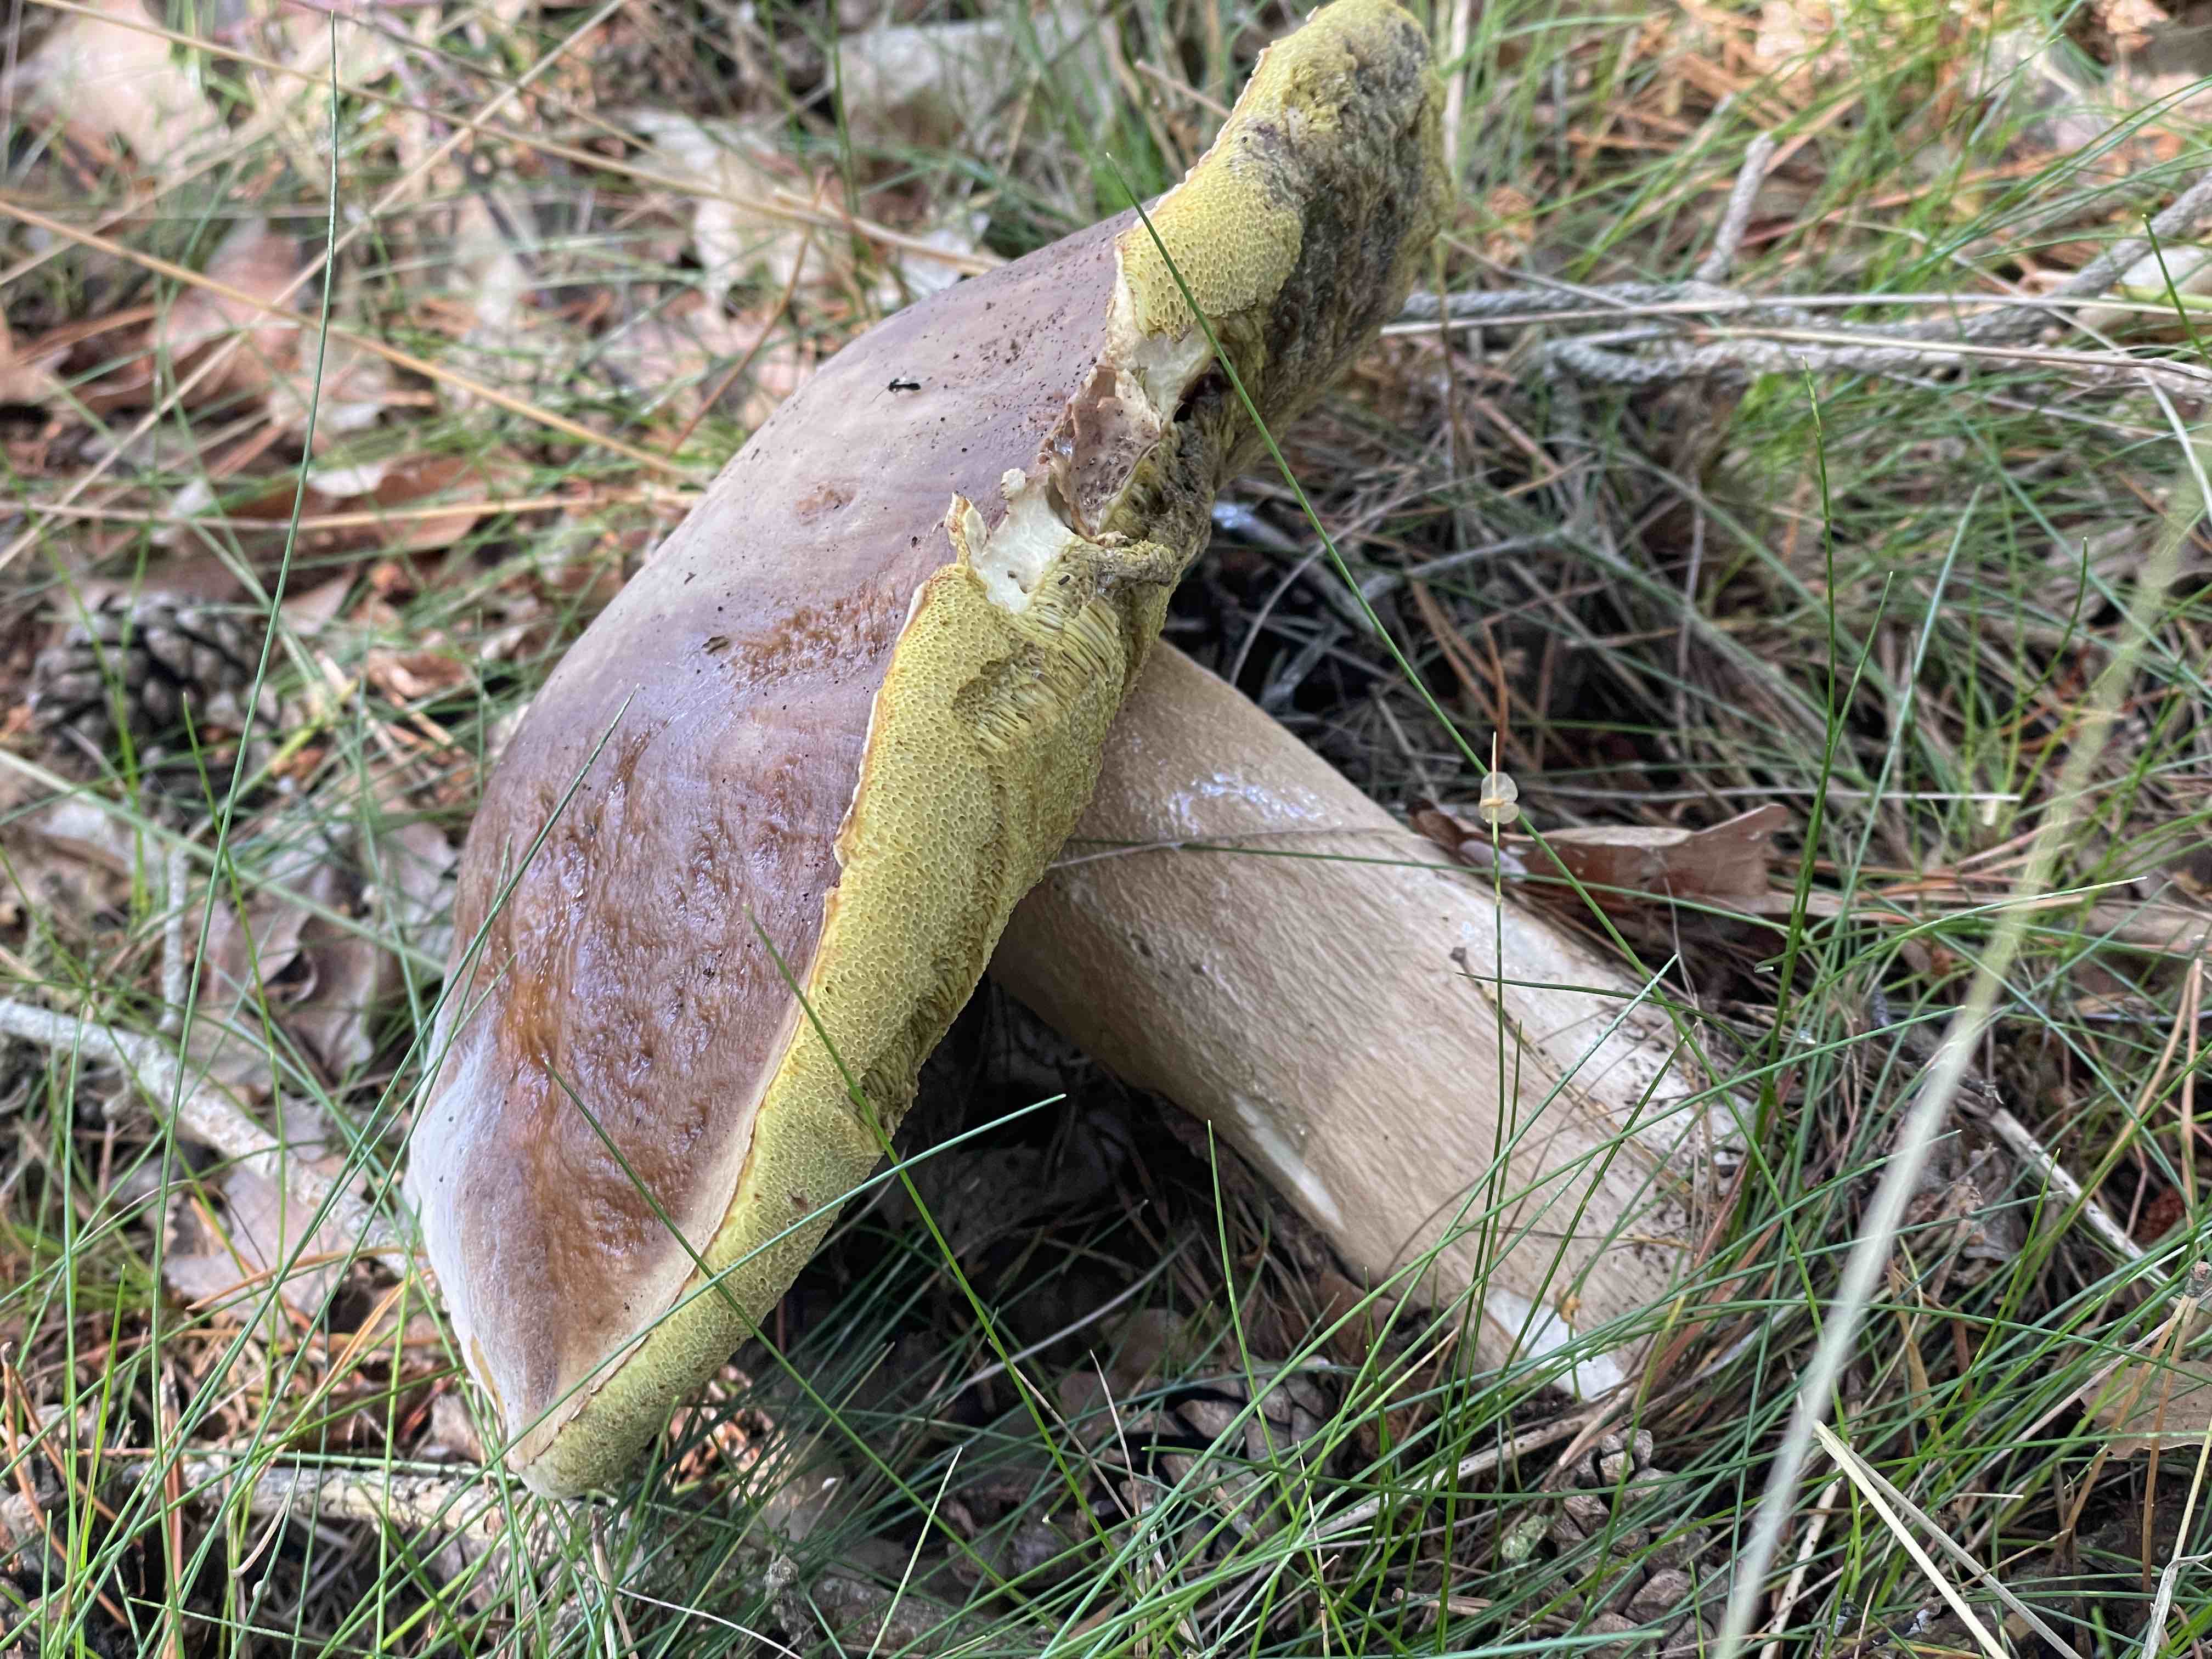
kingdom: Fungi
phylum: Basidiomycota
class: Agaricomycetes
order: Boletales
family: Boletaceae
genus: Boletus
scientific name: Boletus edulis
